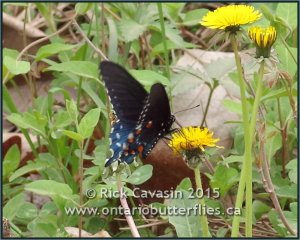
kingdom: Animalia
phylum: Arthropoda
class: Insecta
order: Lepidoptera
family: Papilionidae
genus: Battus
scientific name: Battus philenor
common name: Pipevine Swallowtail
